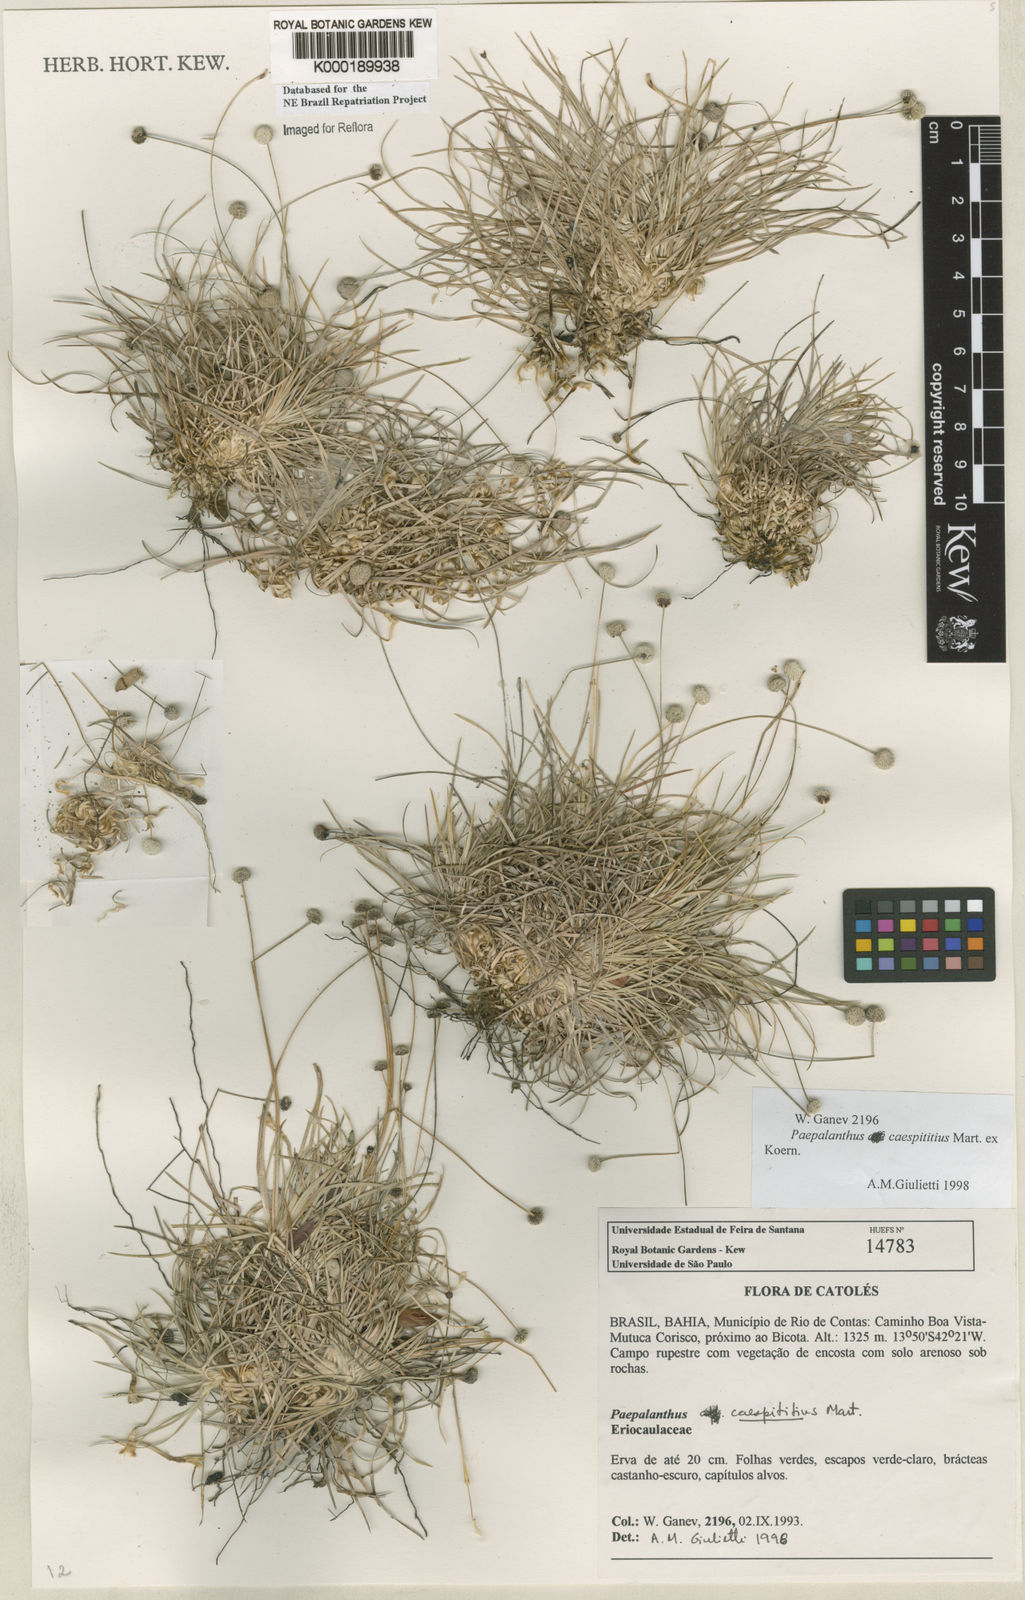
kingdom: Plantae
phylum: Tracheophyta
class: Liliopsida
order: Poales
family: Eriocaulaceae
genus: Paepalanthus
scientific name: Paepalanthus
